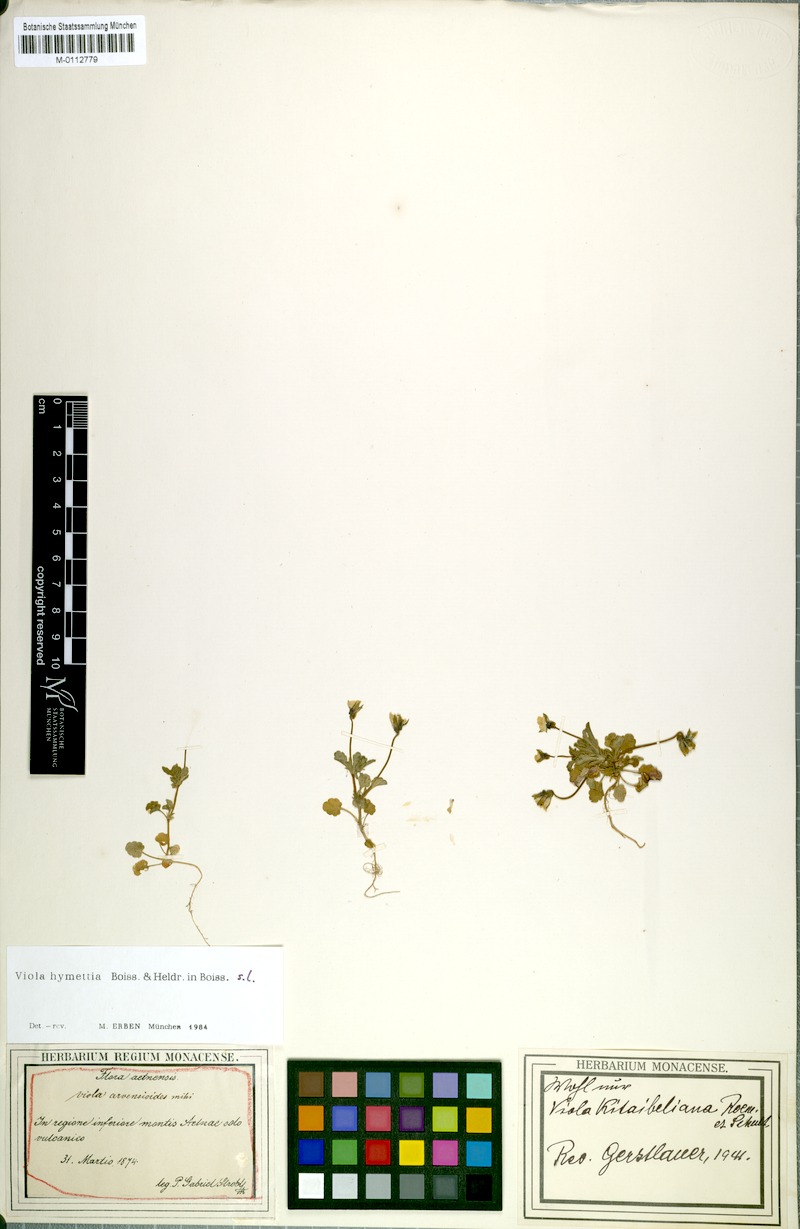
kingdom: Plantae
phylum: Tracheophyta
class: Magnoliopsida
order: Malpighiales
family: Violaceae
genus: Viola
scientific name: Viola hymettia
